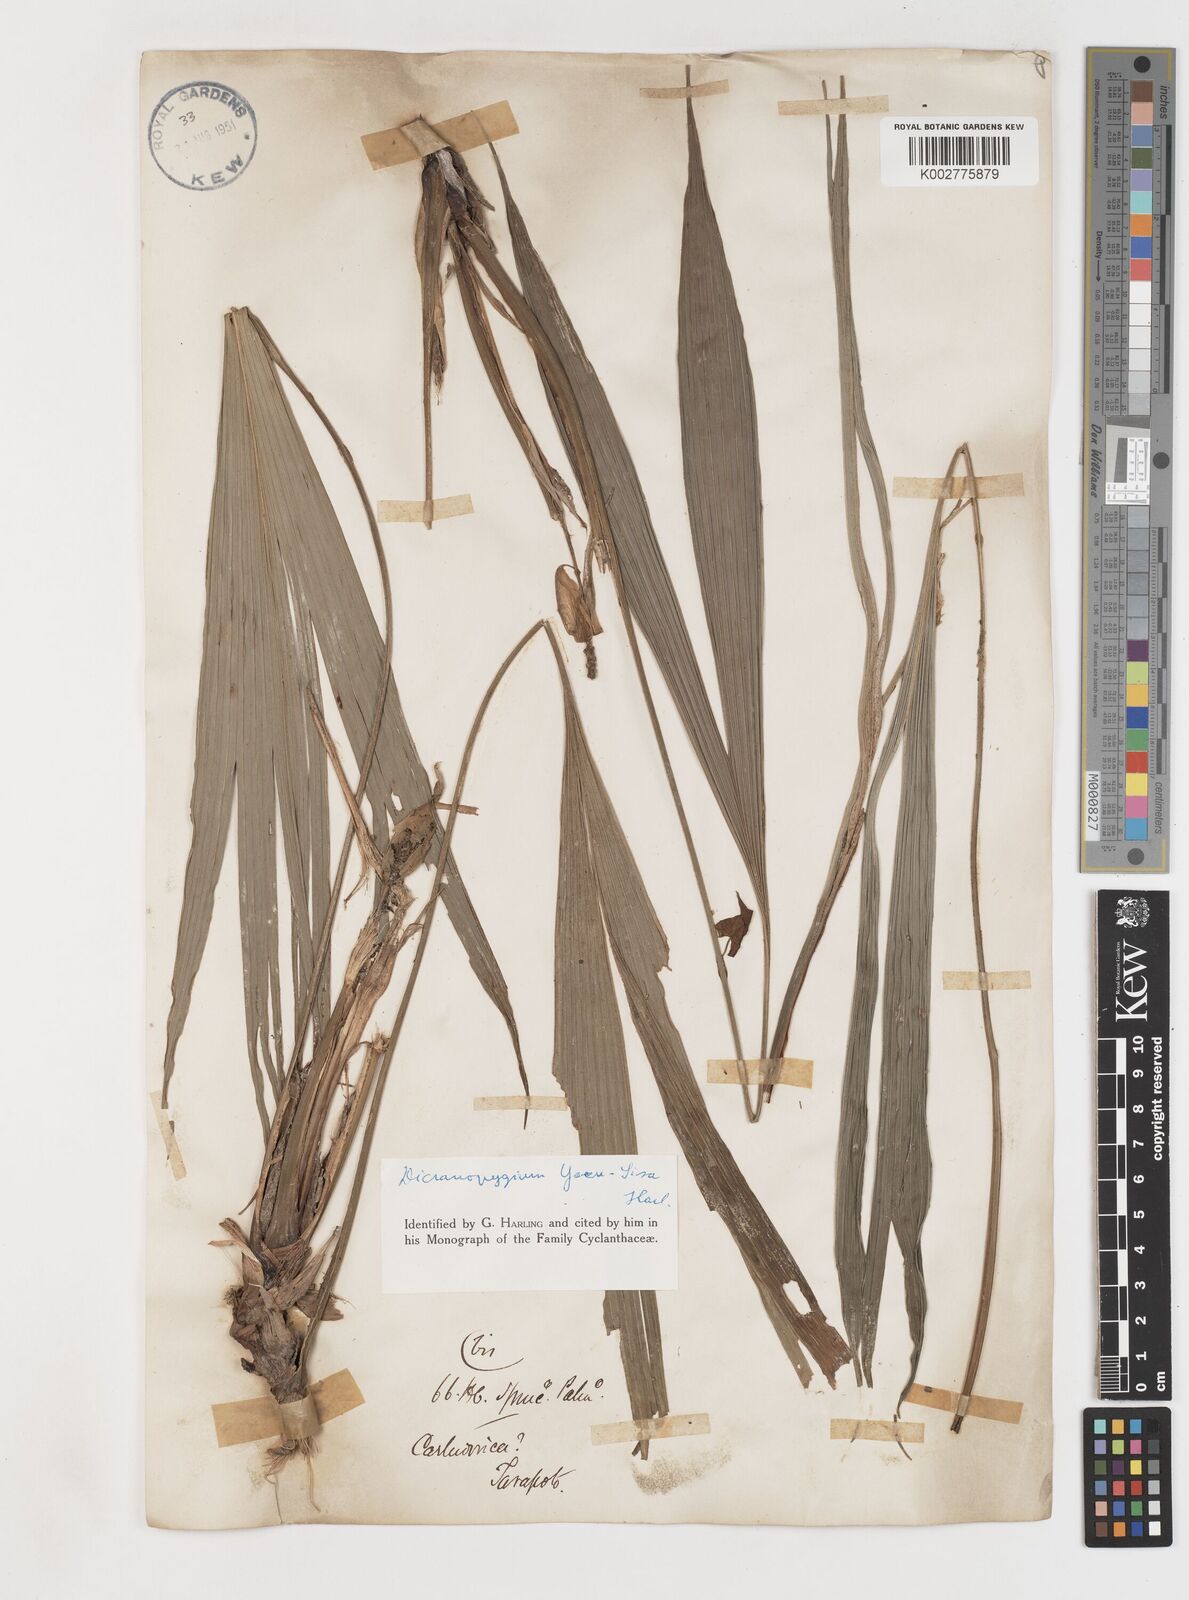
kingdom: Plantae
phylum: Tracheophyta
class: Liliopsida
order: Pandanales
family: Cyclanthaceae
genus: Dicranopygium
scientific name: Dicranopygium yacu-sisa
